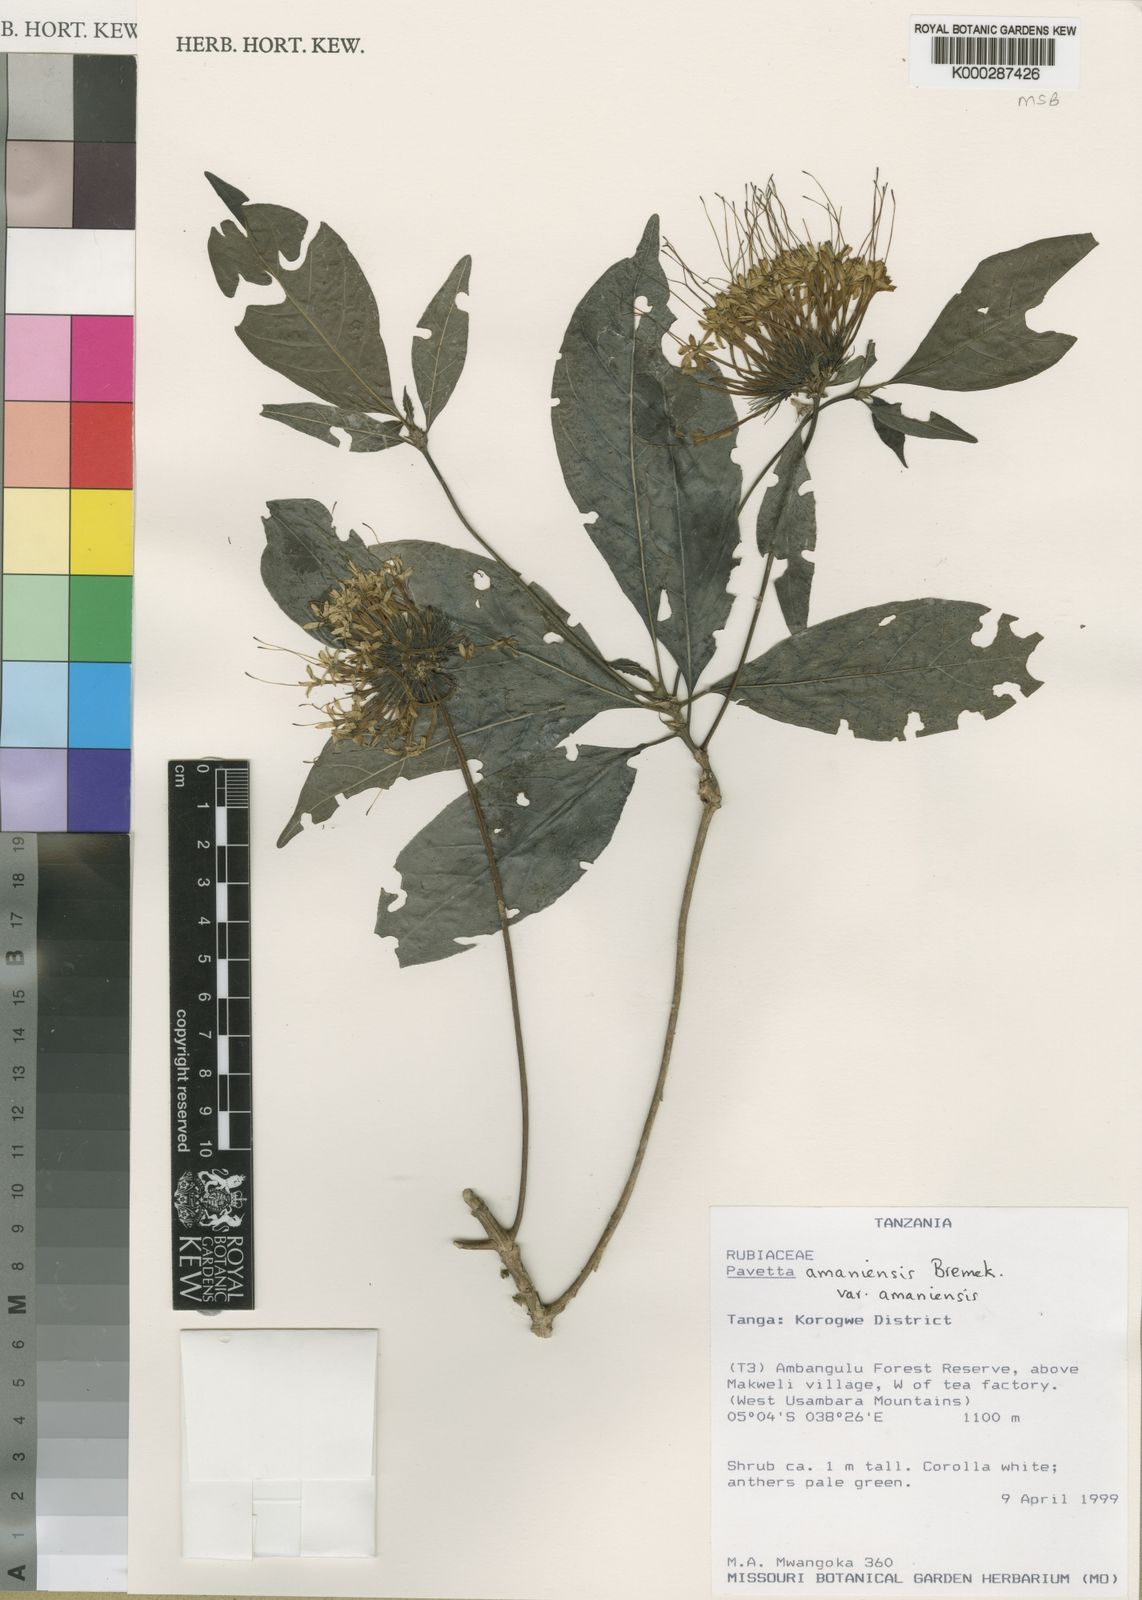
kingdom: Plantae
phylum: Tracheophyta
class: Magnoliopsida
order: Gentianales
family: Rubiaceae
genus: Pavetta
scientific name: Pavetta amaniensis
